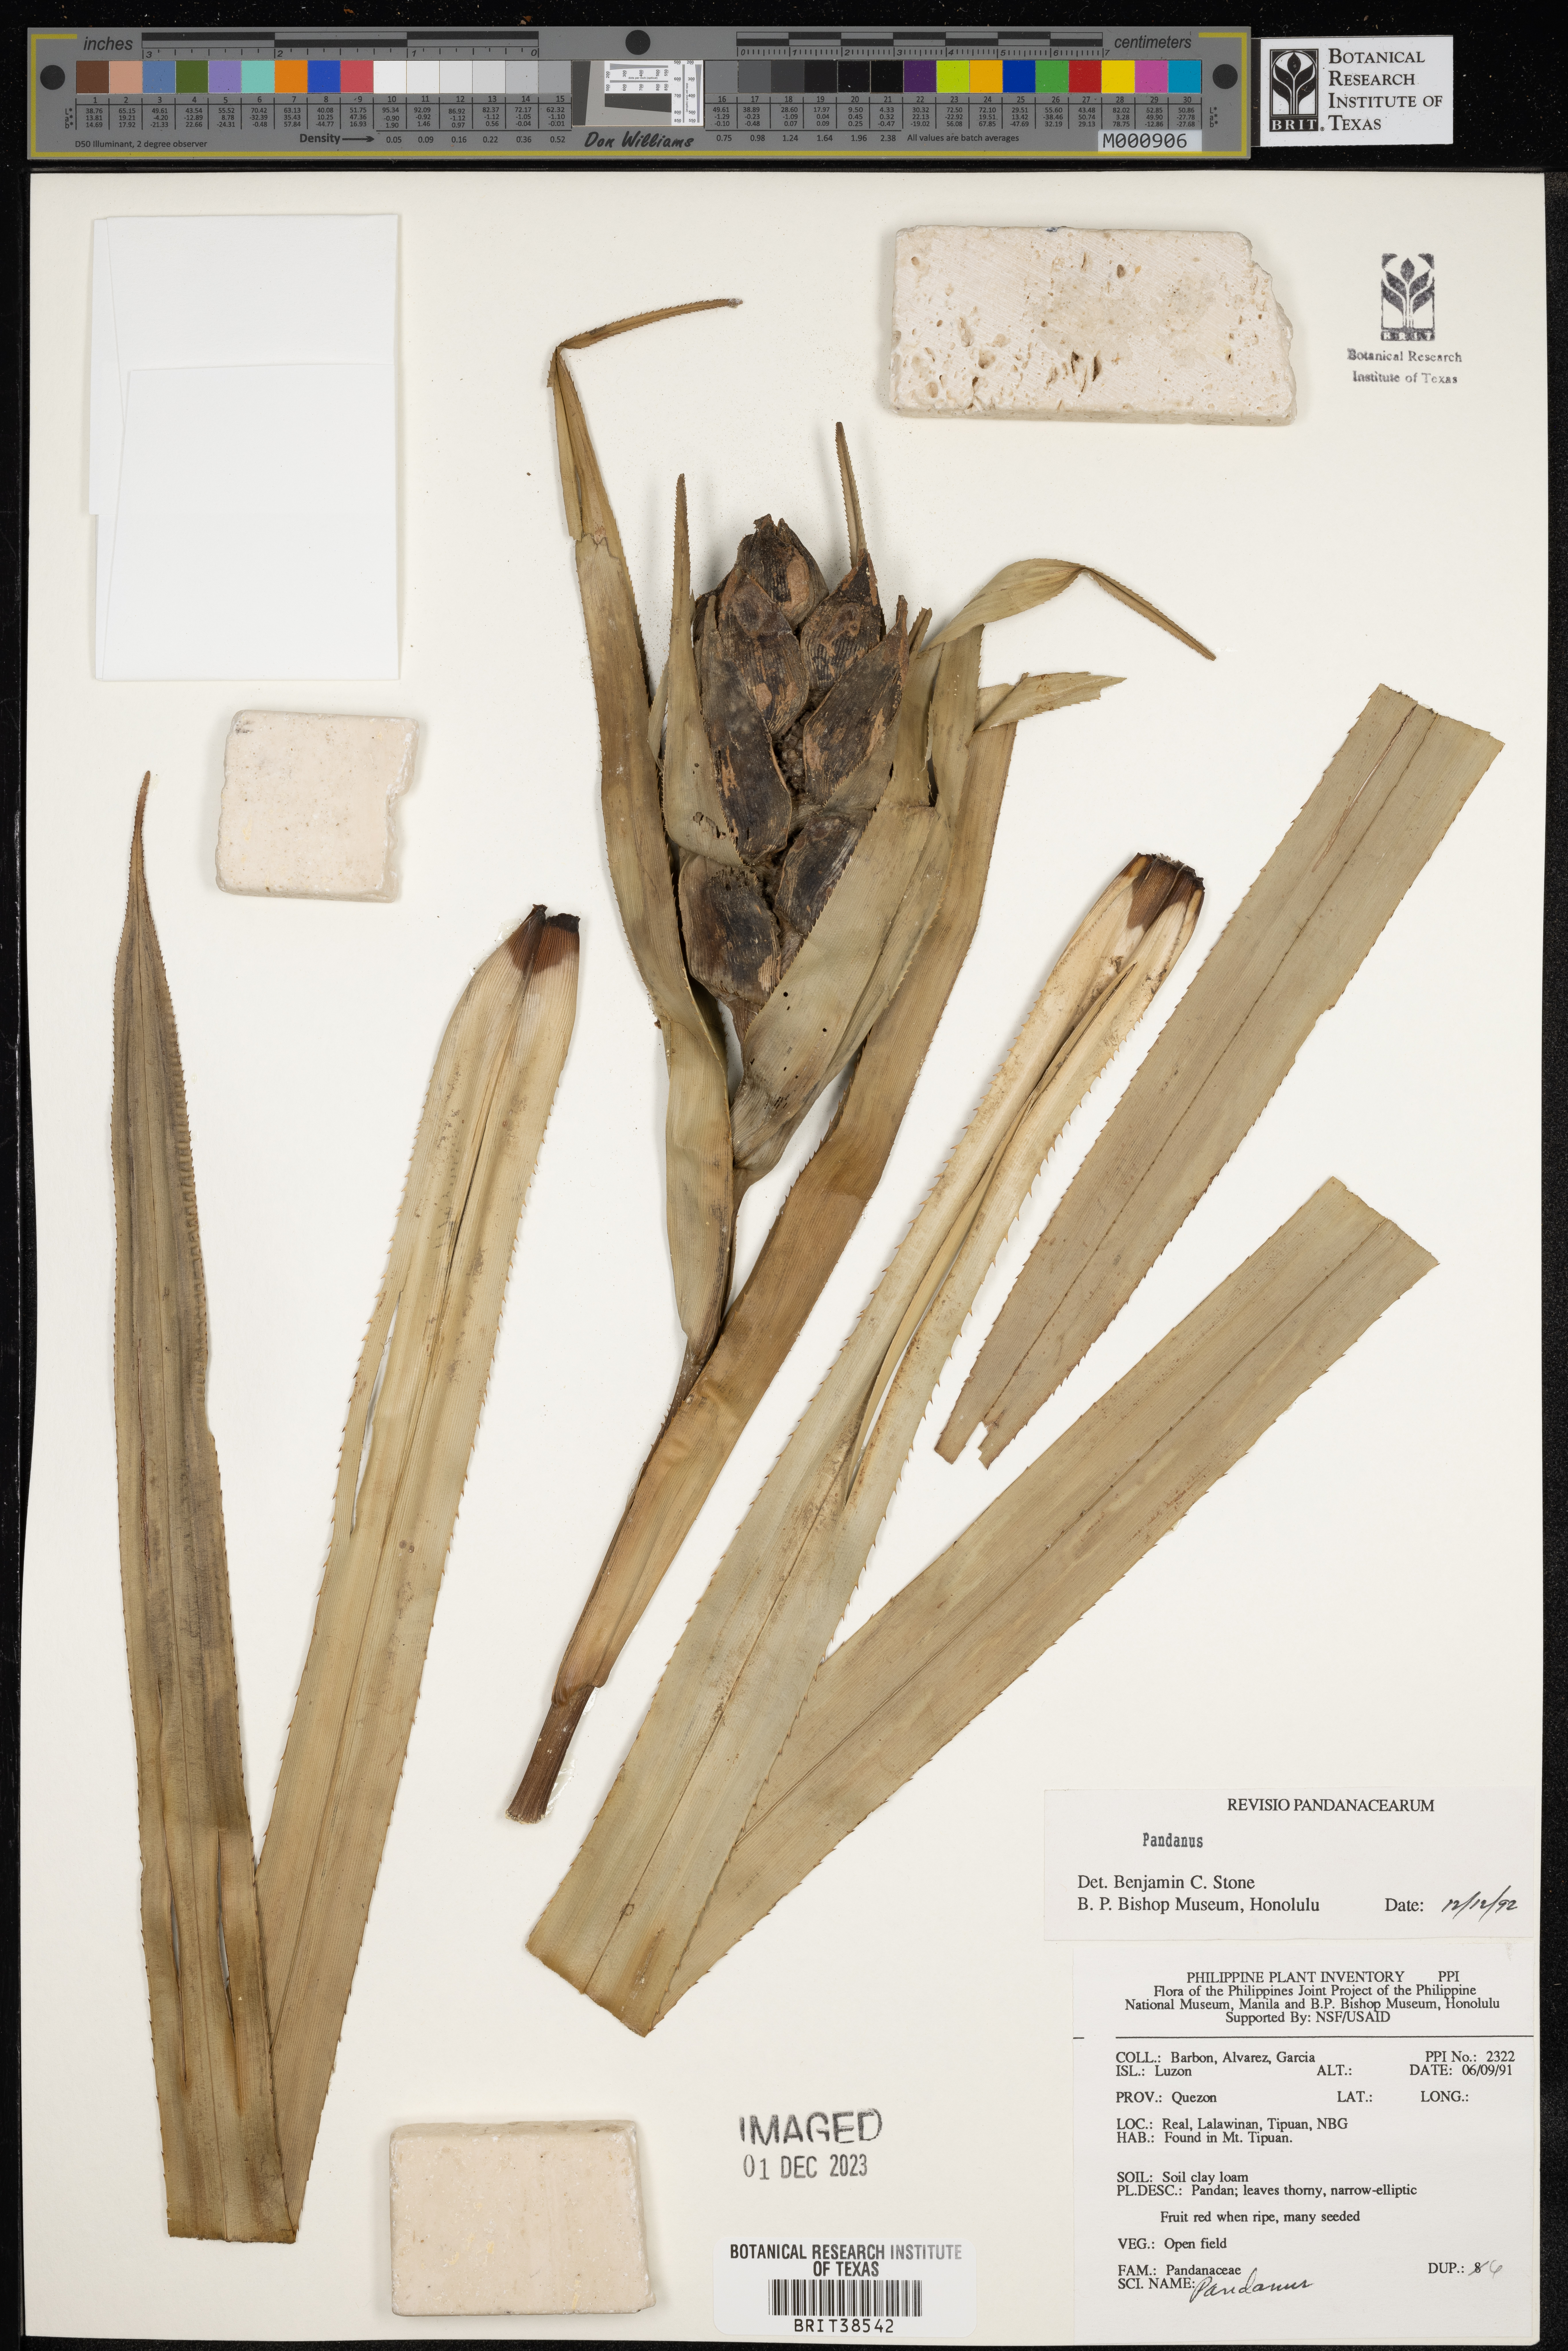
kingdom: Plantae
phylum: Tracheophyta
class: Liliopsida
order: Pandanales
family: Pandanaceae
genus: Pandanus
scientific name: Pandanus
